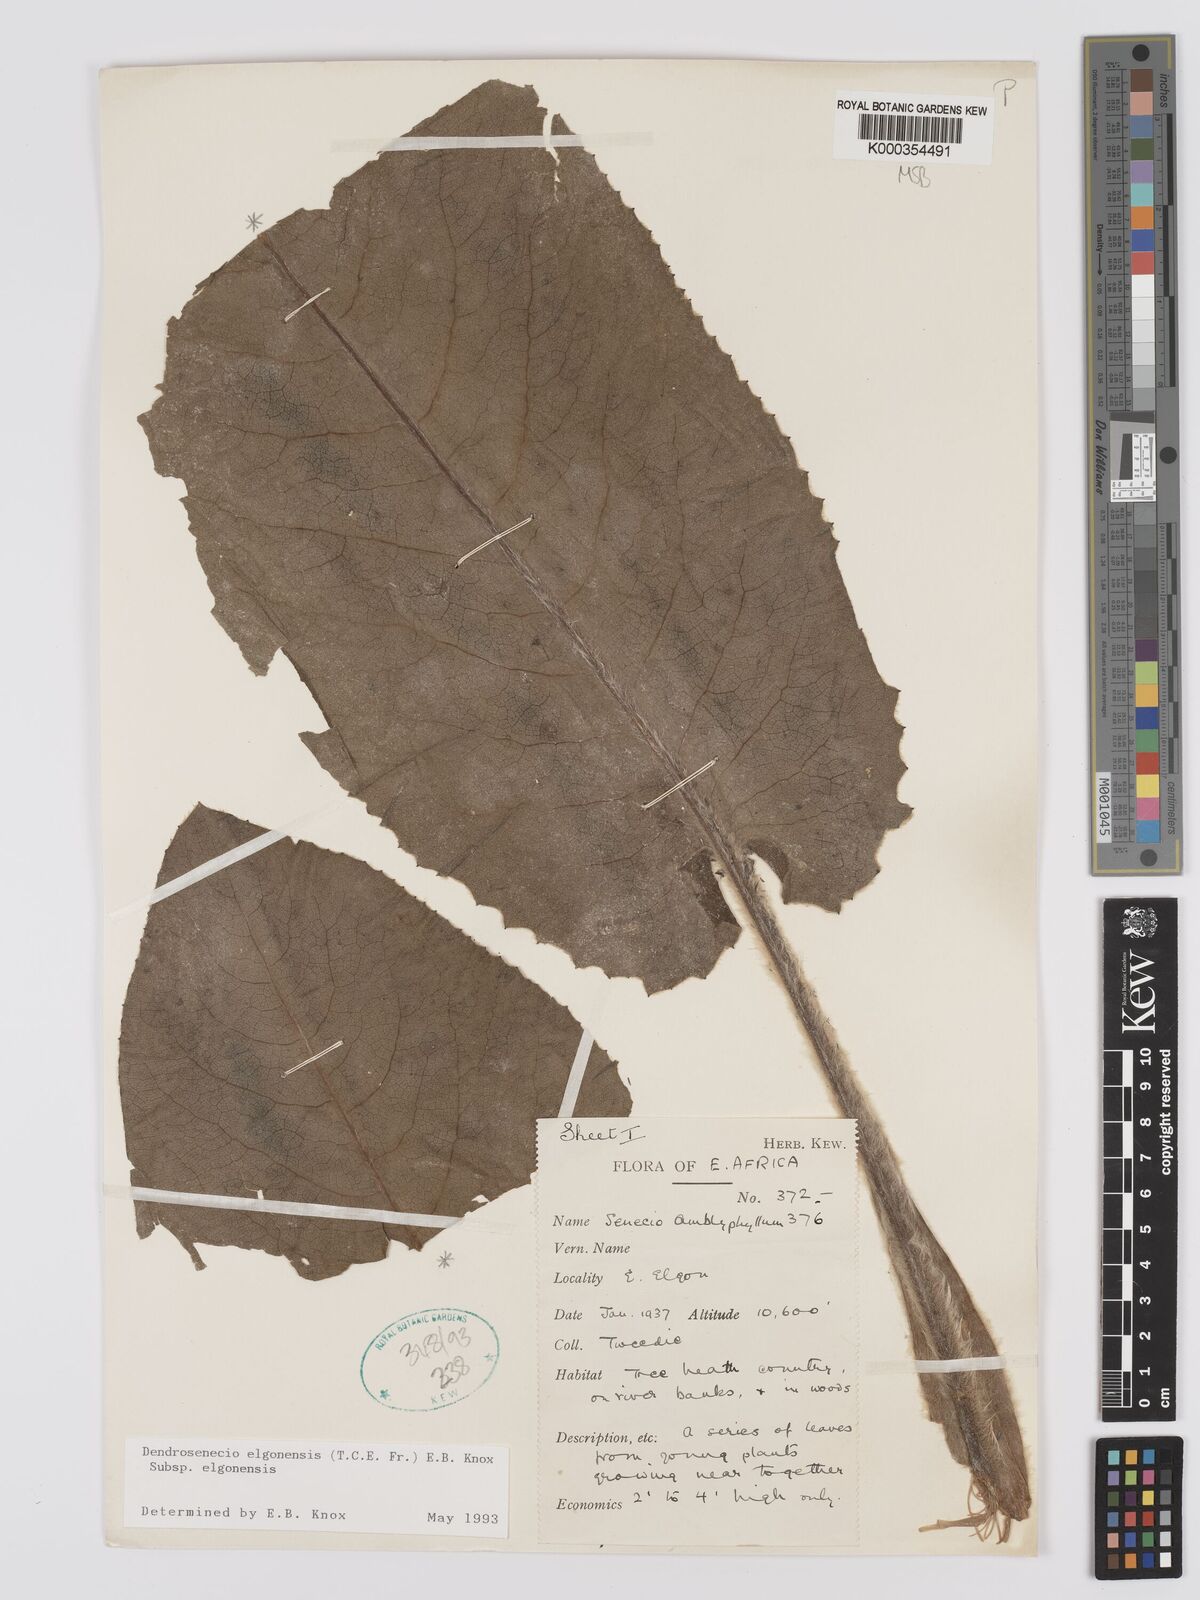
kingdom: Plantae
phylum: Tracheophyta
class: Magnoliopsida
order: Asterales
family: Asteraceae
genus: Dendrosenecio
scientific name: Dendrosenecio elgonensis
